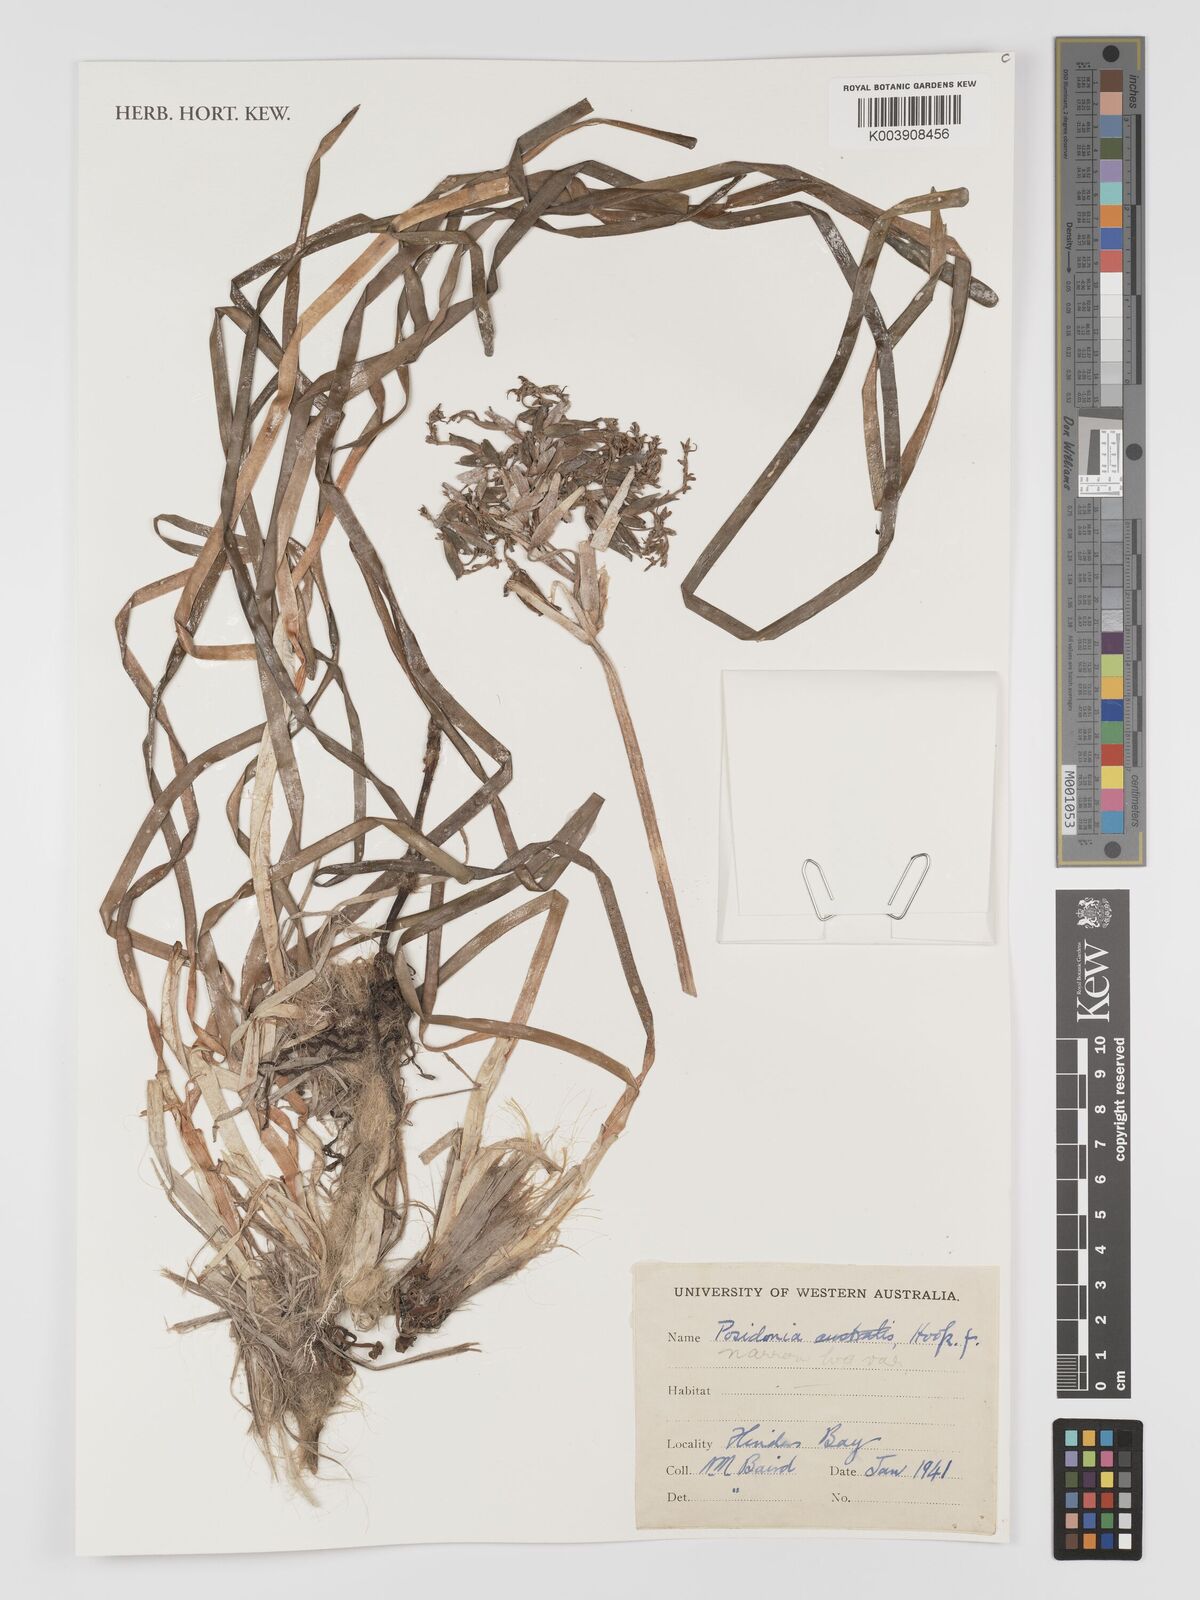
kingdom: Plantae
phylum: Tracheophyta
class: Liliopsida
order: Alismatales
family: Posidoniaceae
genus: Posidonia
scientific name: Posidonia
